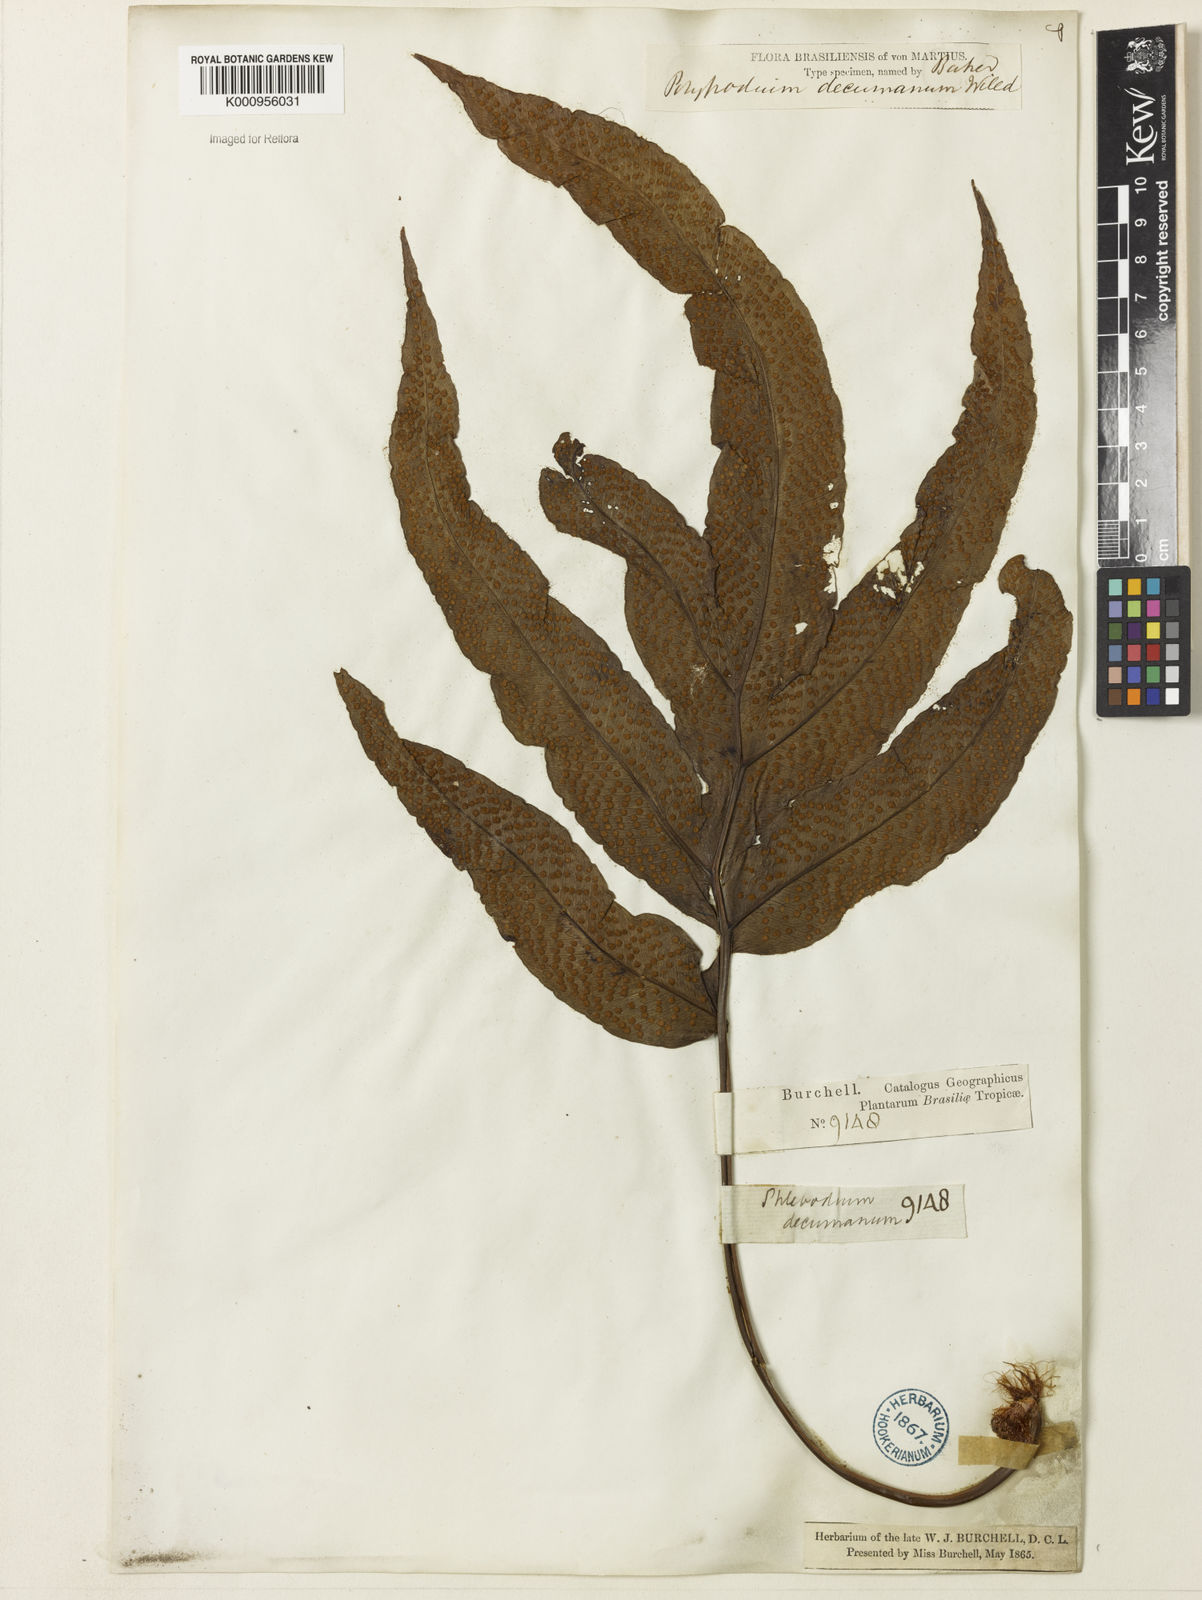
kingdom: Plantae
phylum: Tracheophyta
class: Polypodiopsida
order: Polypodiales
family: Polypodiaceae
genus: Phlebodium
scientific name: Phlebodium decumanum
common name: Golden polypod
